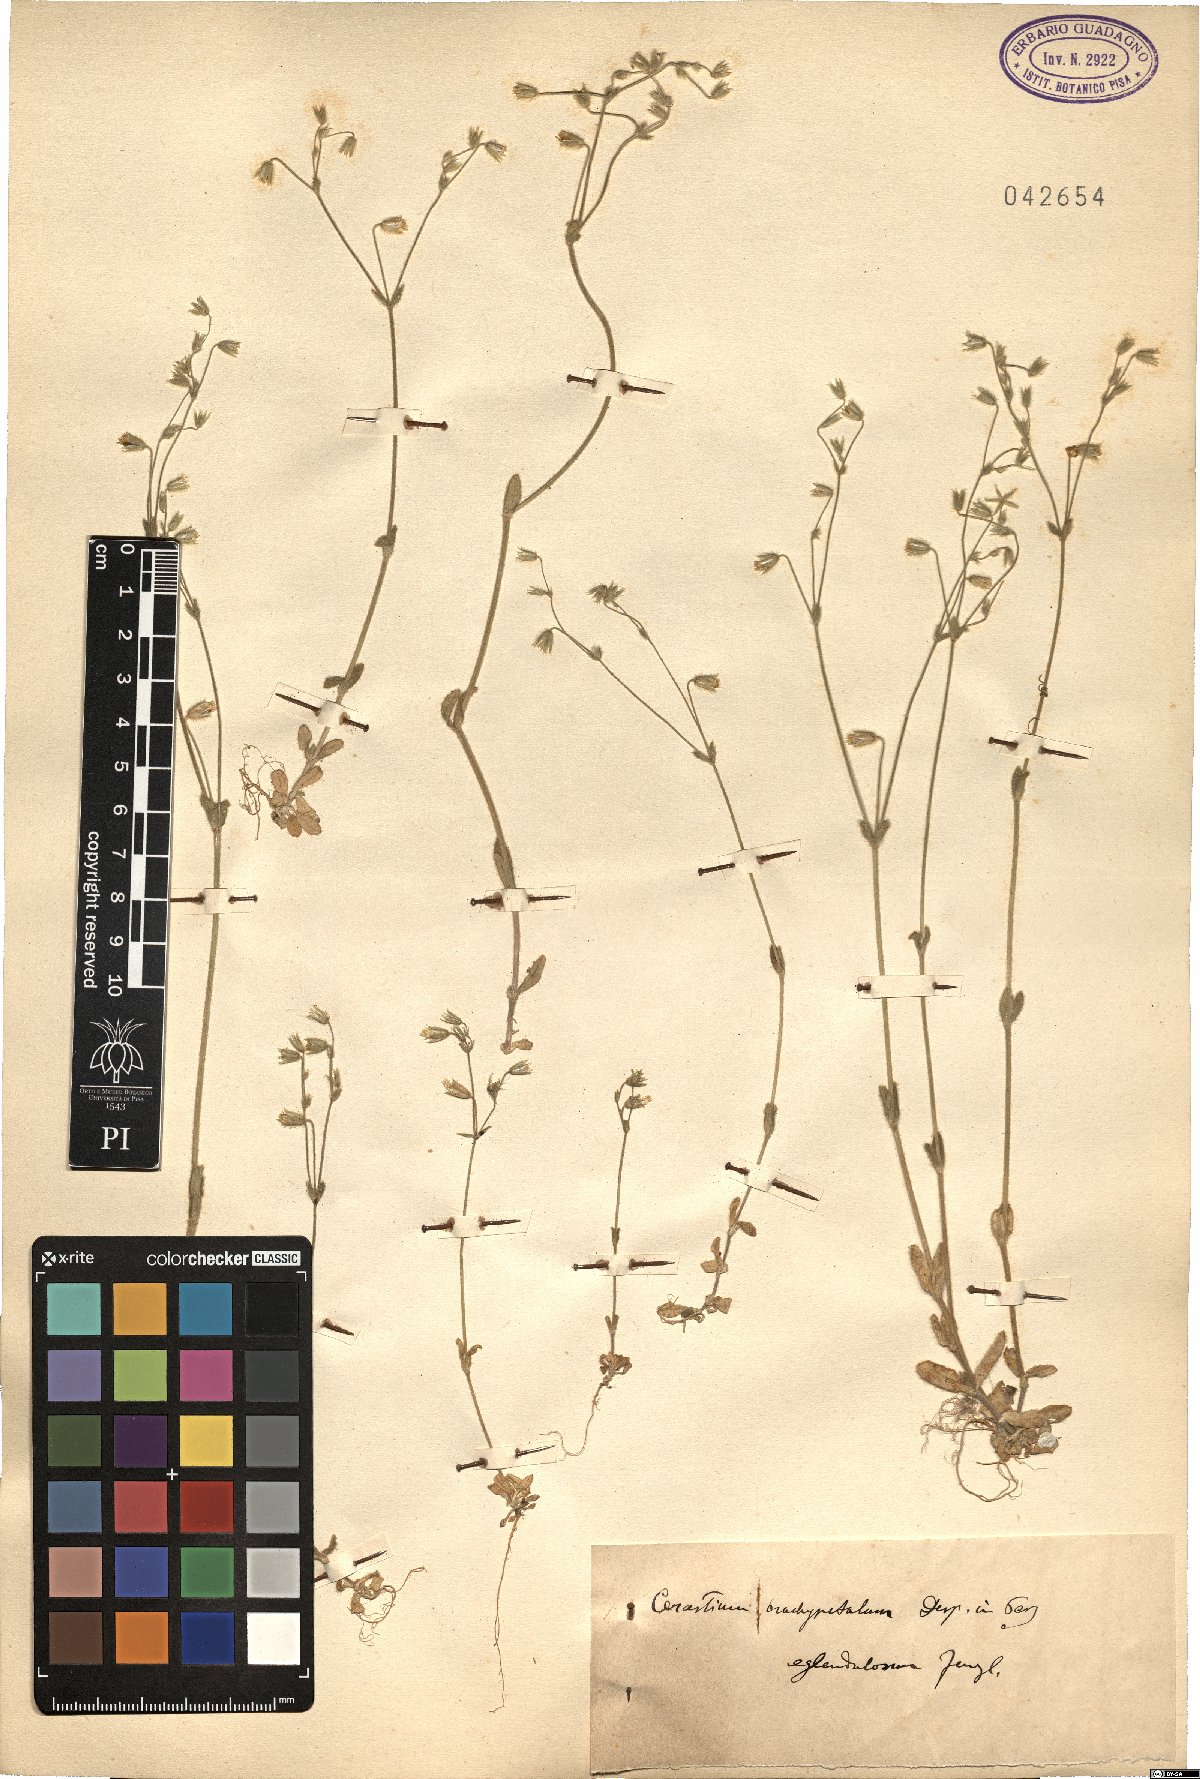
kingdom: Plantae
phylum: Tracheophyta
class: Magnoliopsida
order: Caryophyllales
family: Caryophyllaceae
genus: Cerastium
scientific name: Cerastium brachypetalum
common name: Grey mouse-ear
